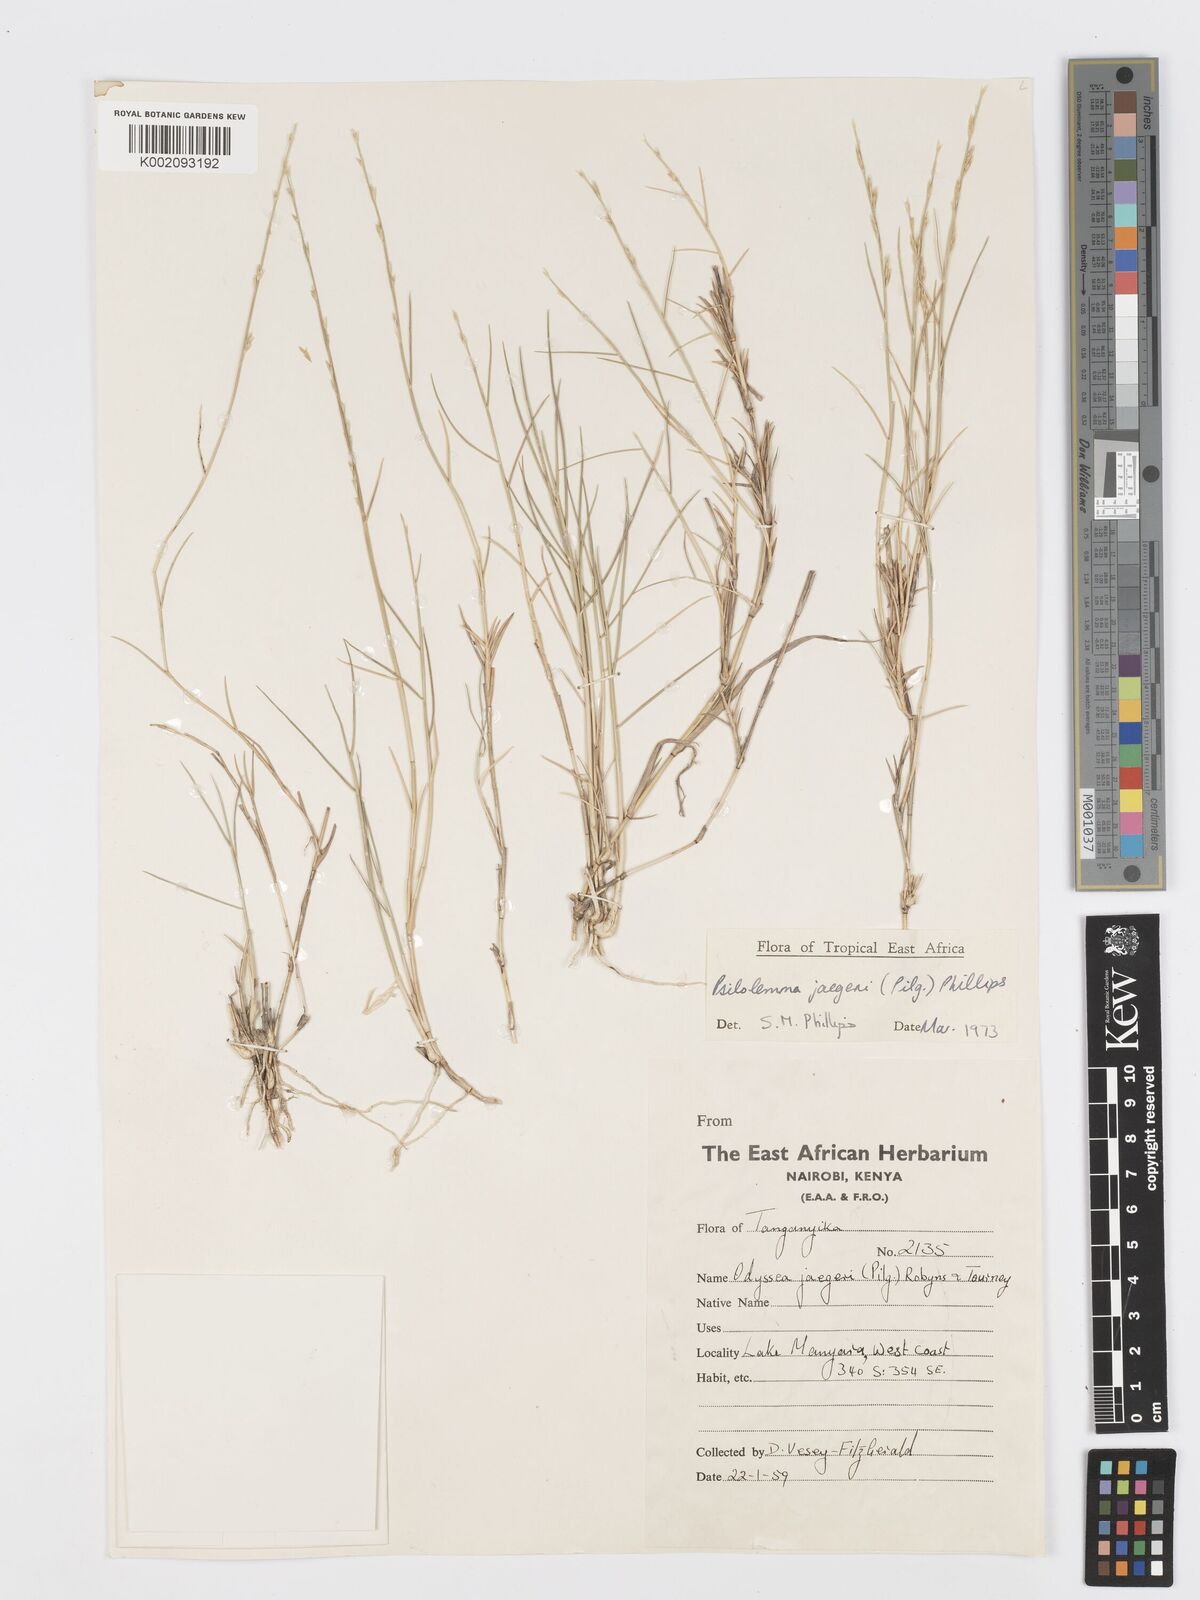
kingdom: Plantae
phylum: Tracheophyta
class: Liliopsida
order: Poales
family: Poaceae
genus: Psilolemma
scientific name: Psilolemma jaegeri
